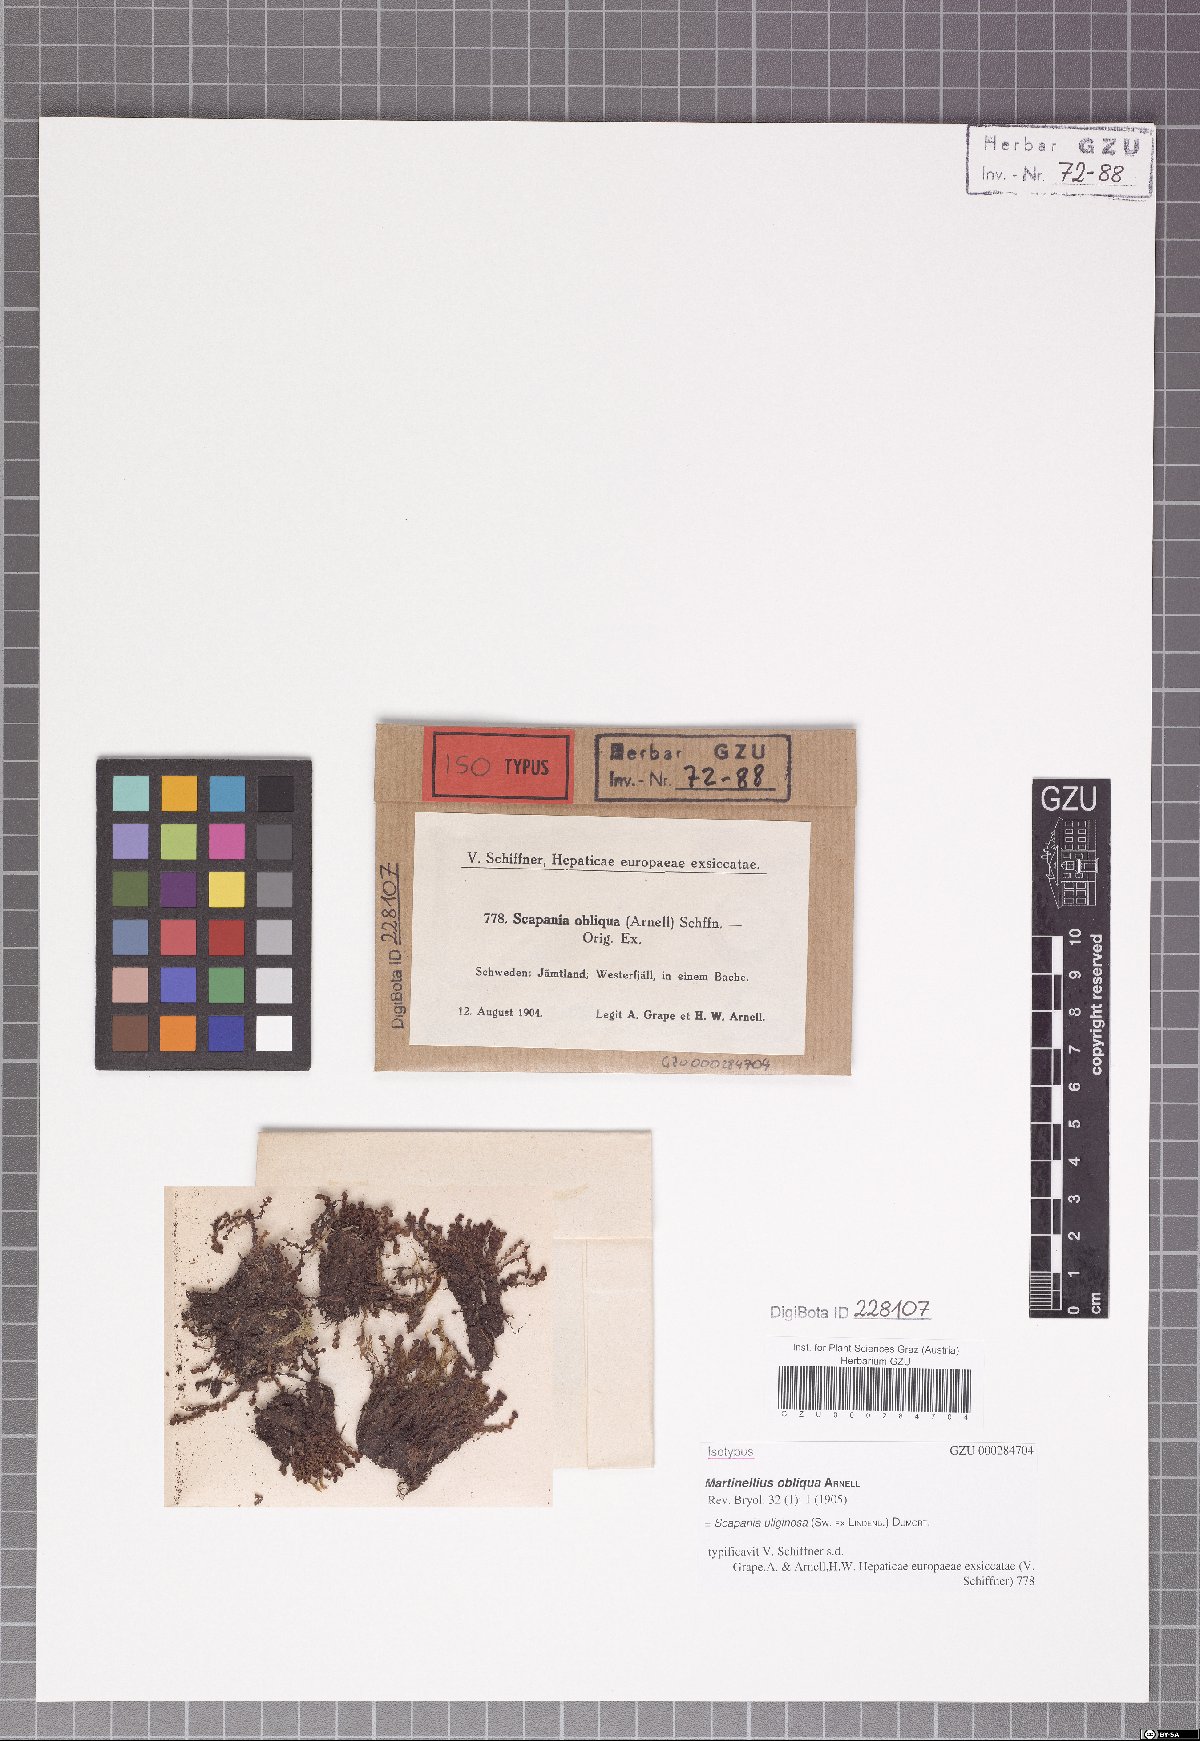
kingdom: Plantae
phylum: Marchantiophyta
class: Jungermanniopsida
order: Jungermanniales
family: Scapaniaceae
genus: Scapania
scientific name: Scapania uliginosa
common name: Marsh earwort
